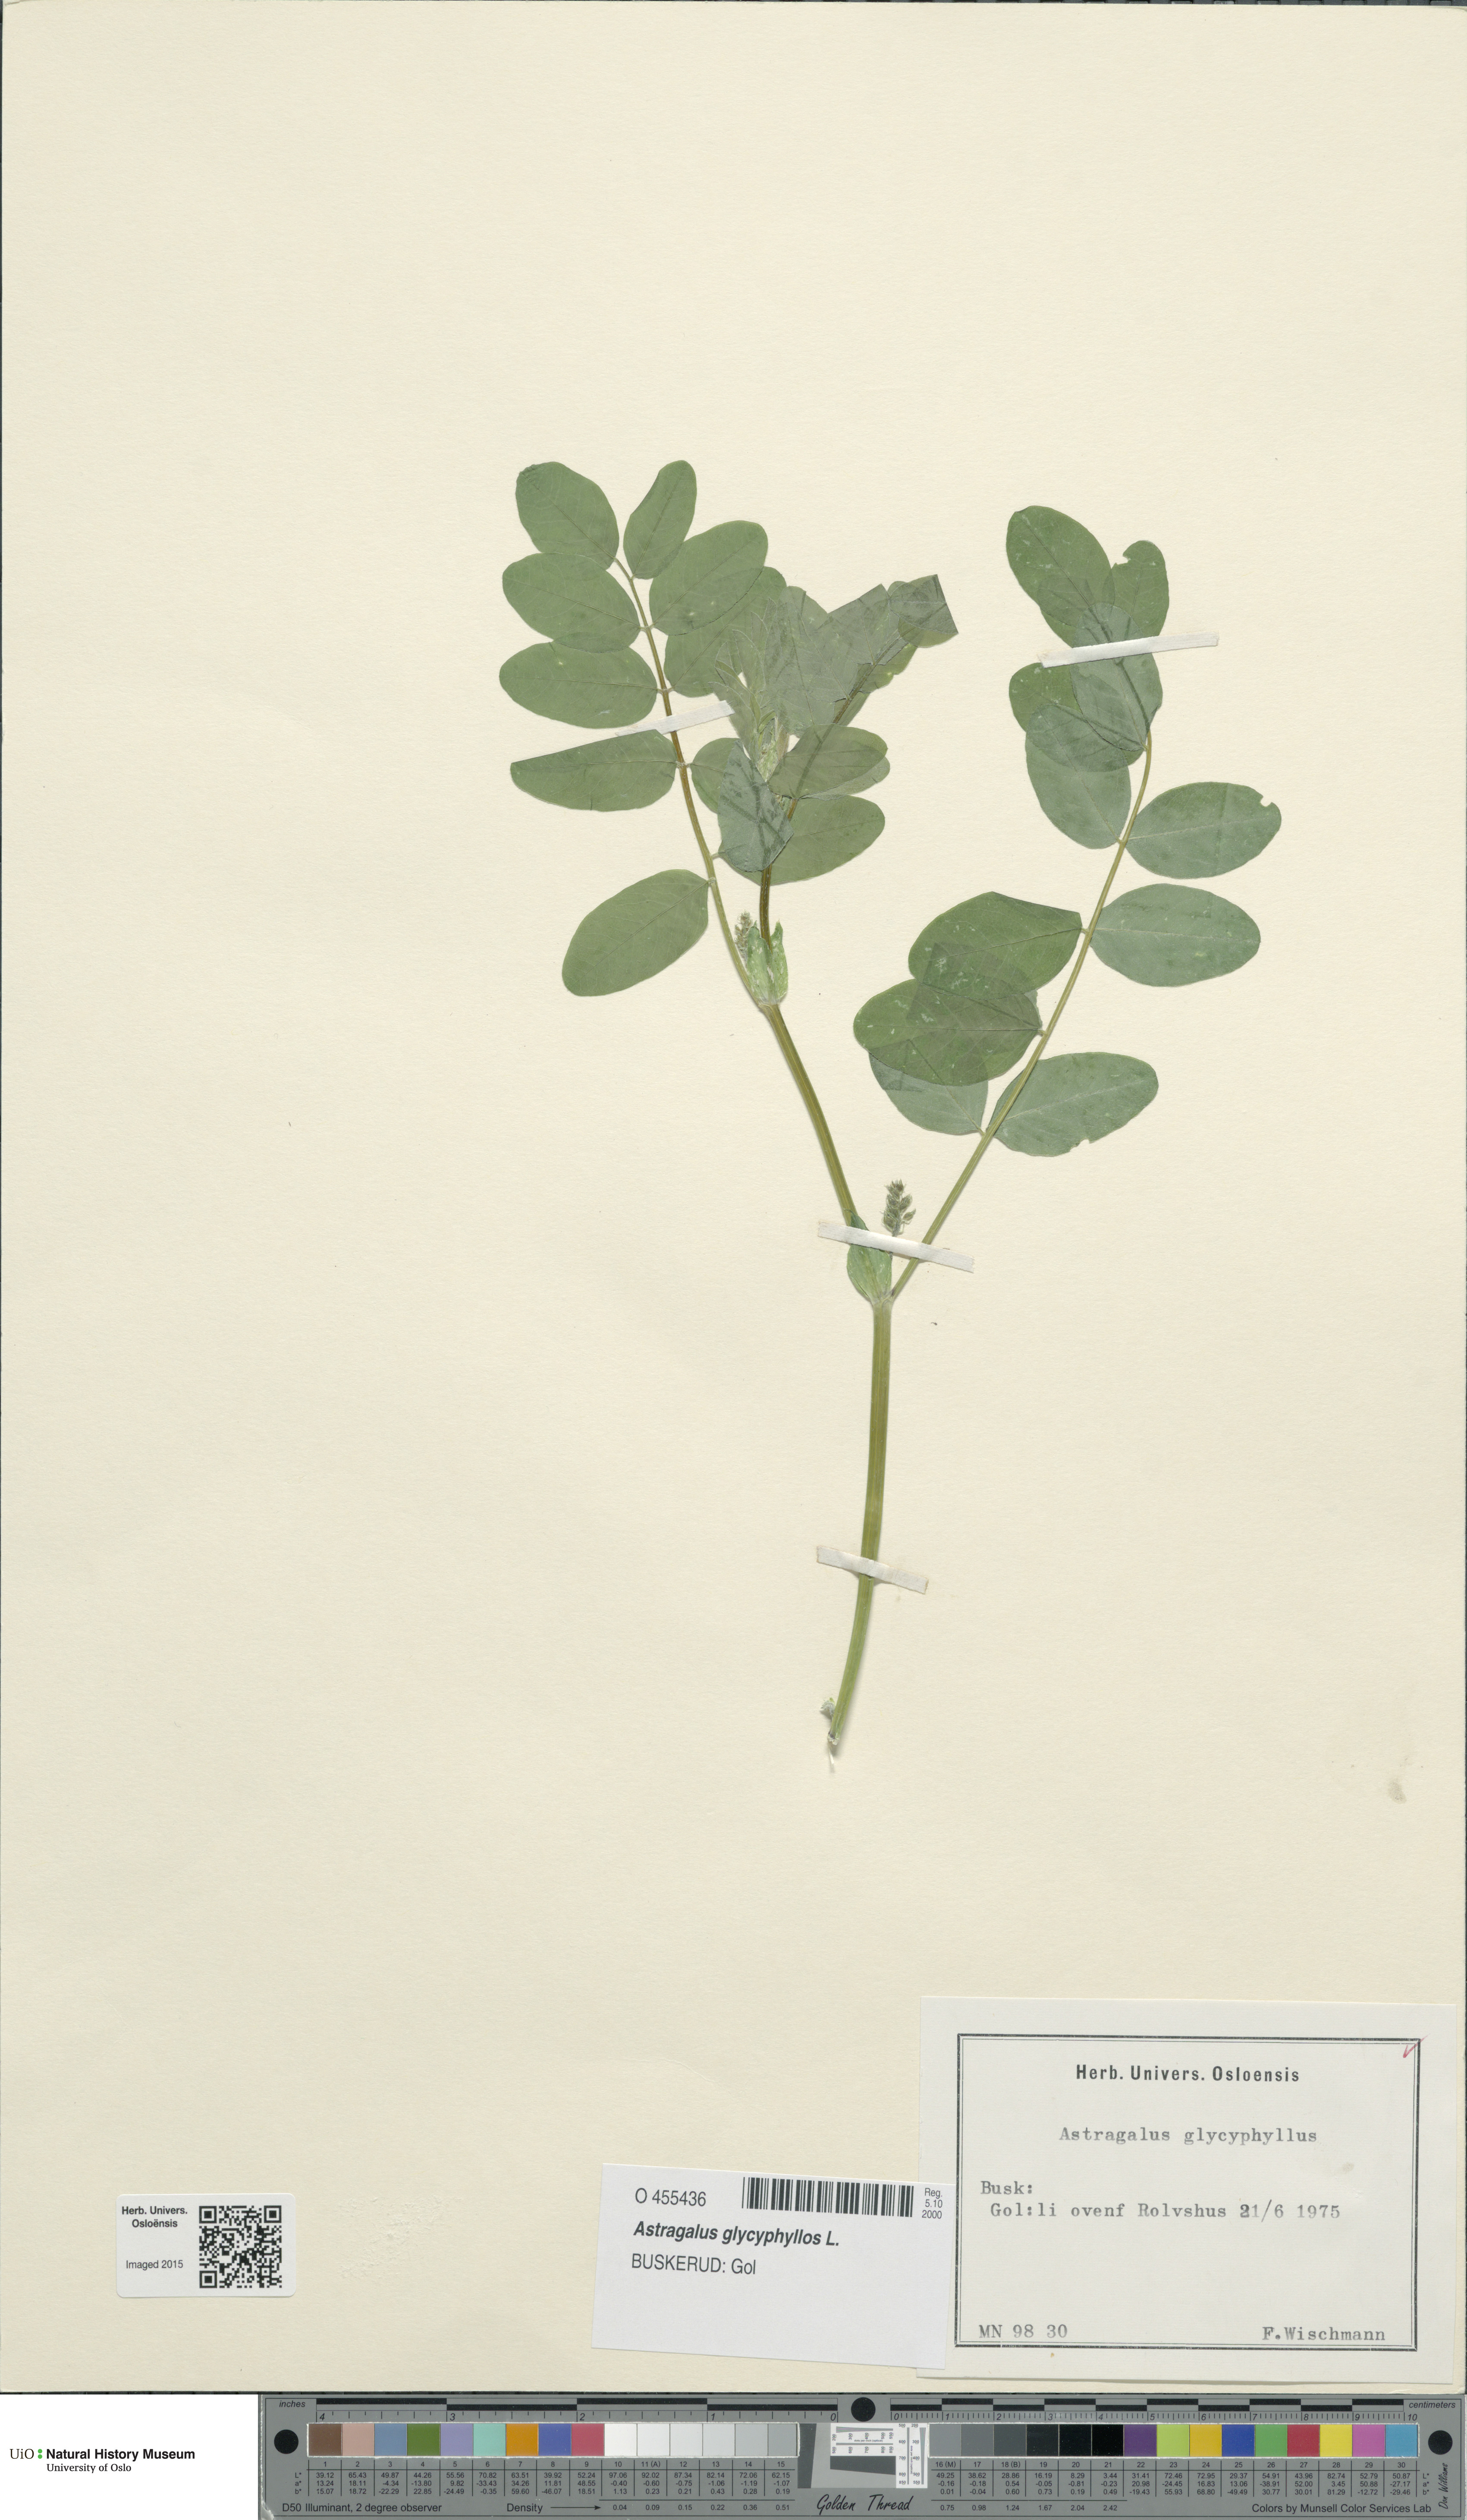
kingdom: Plantae
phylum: Tracheophyta
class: Magnoliopsida
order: Fabales
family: Fabaceae
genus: Astragalus
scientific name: Astragalus glycyphyllos
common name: Wild liquorice
